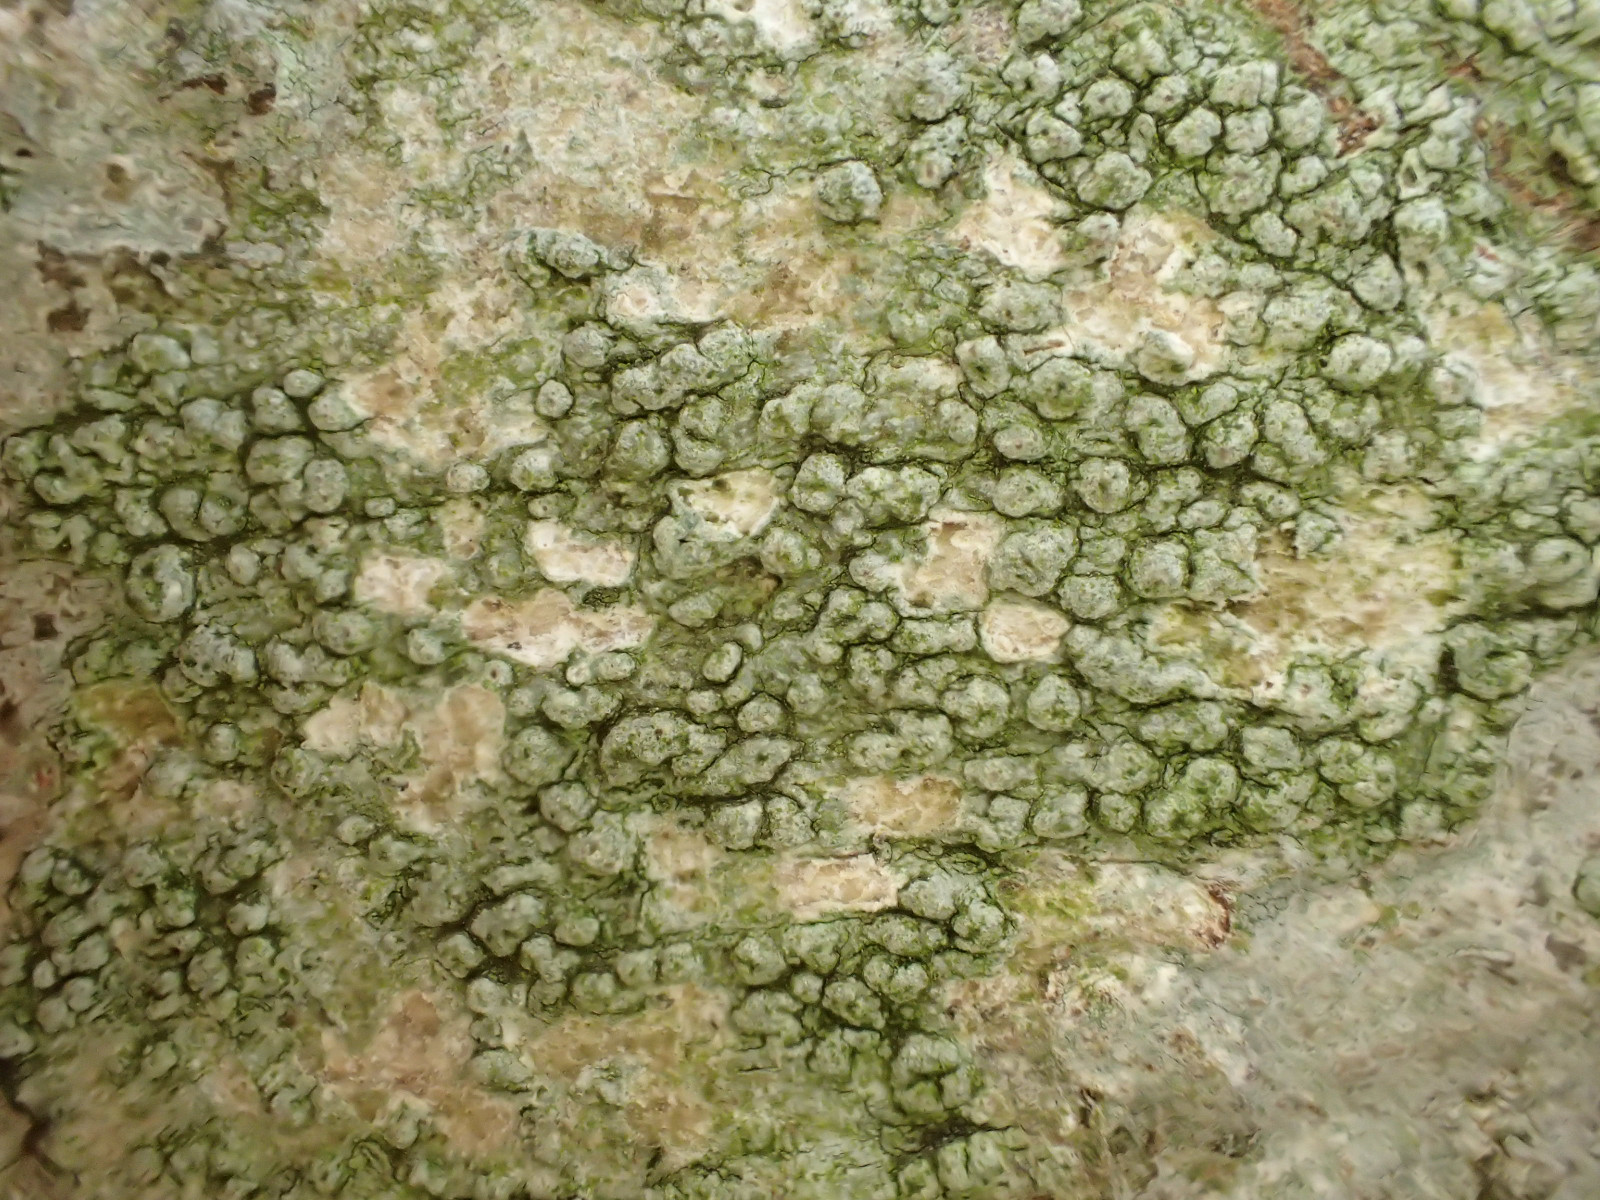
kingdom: Fungi
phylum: Ascomycota
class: Lecanoromycetes
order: Pertusariales
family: Pertusariaceae
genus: Pertusaria
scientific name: Pertusaria hymenea
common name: åben prikvortelav
